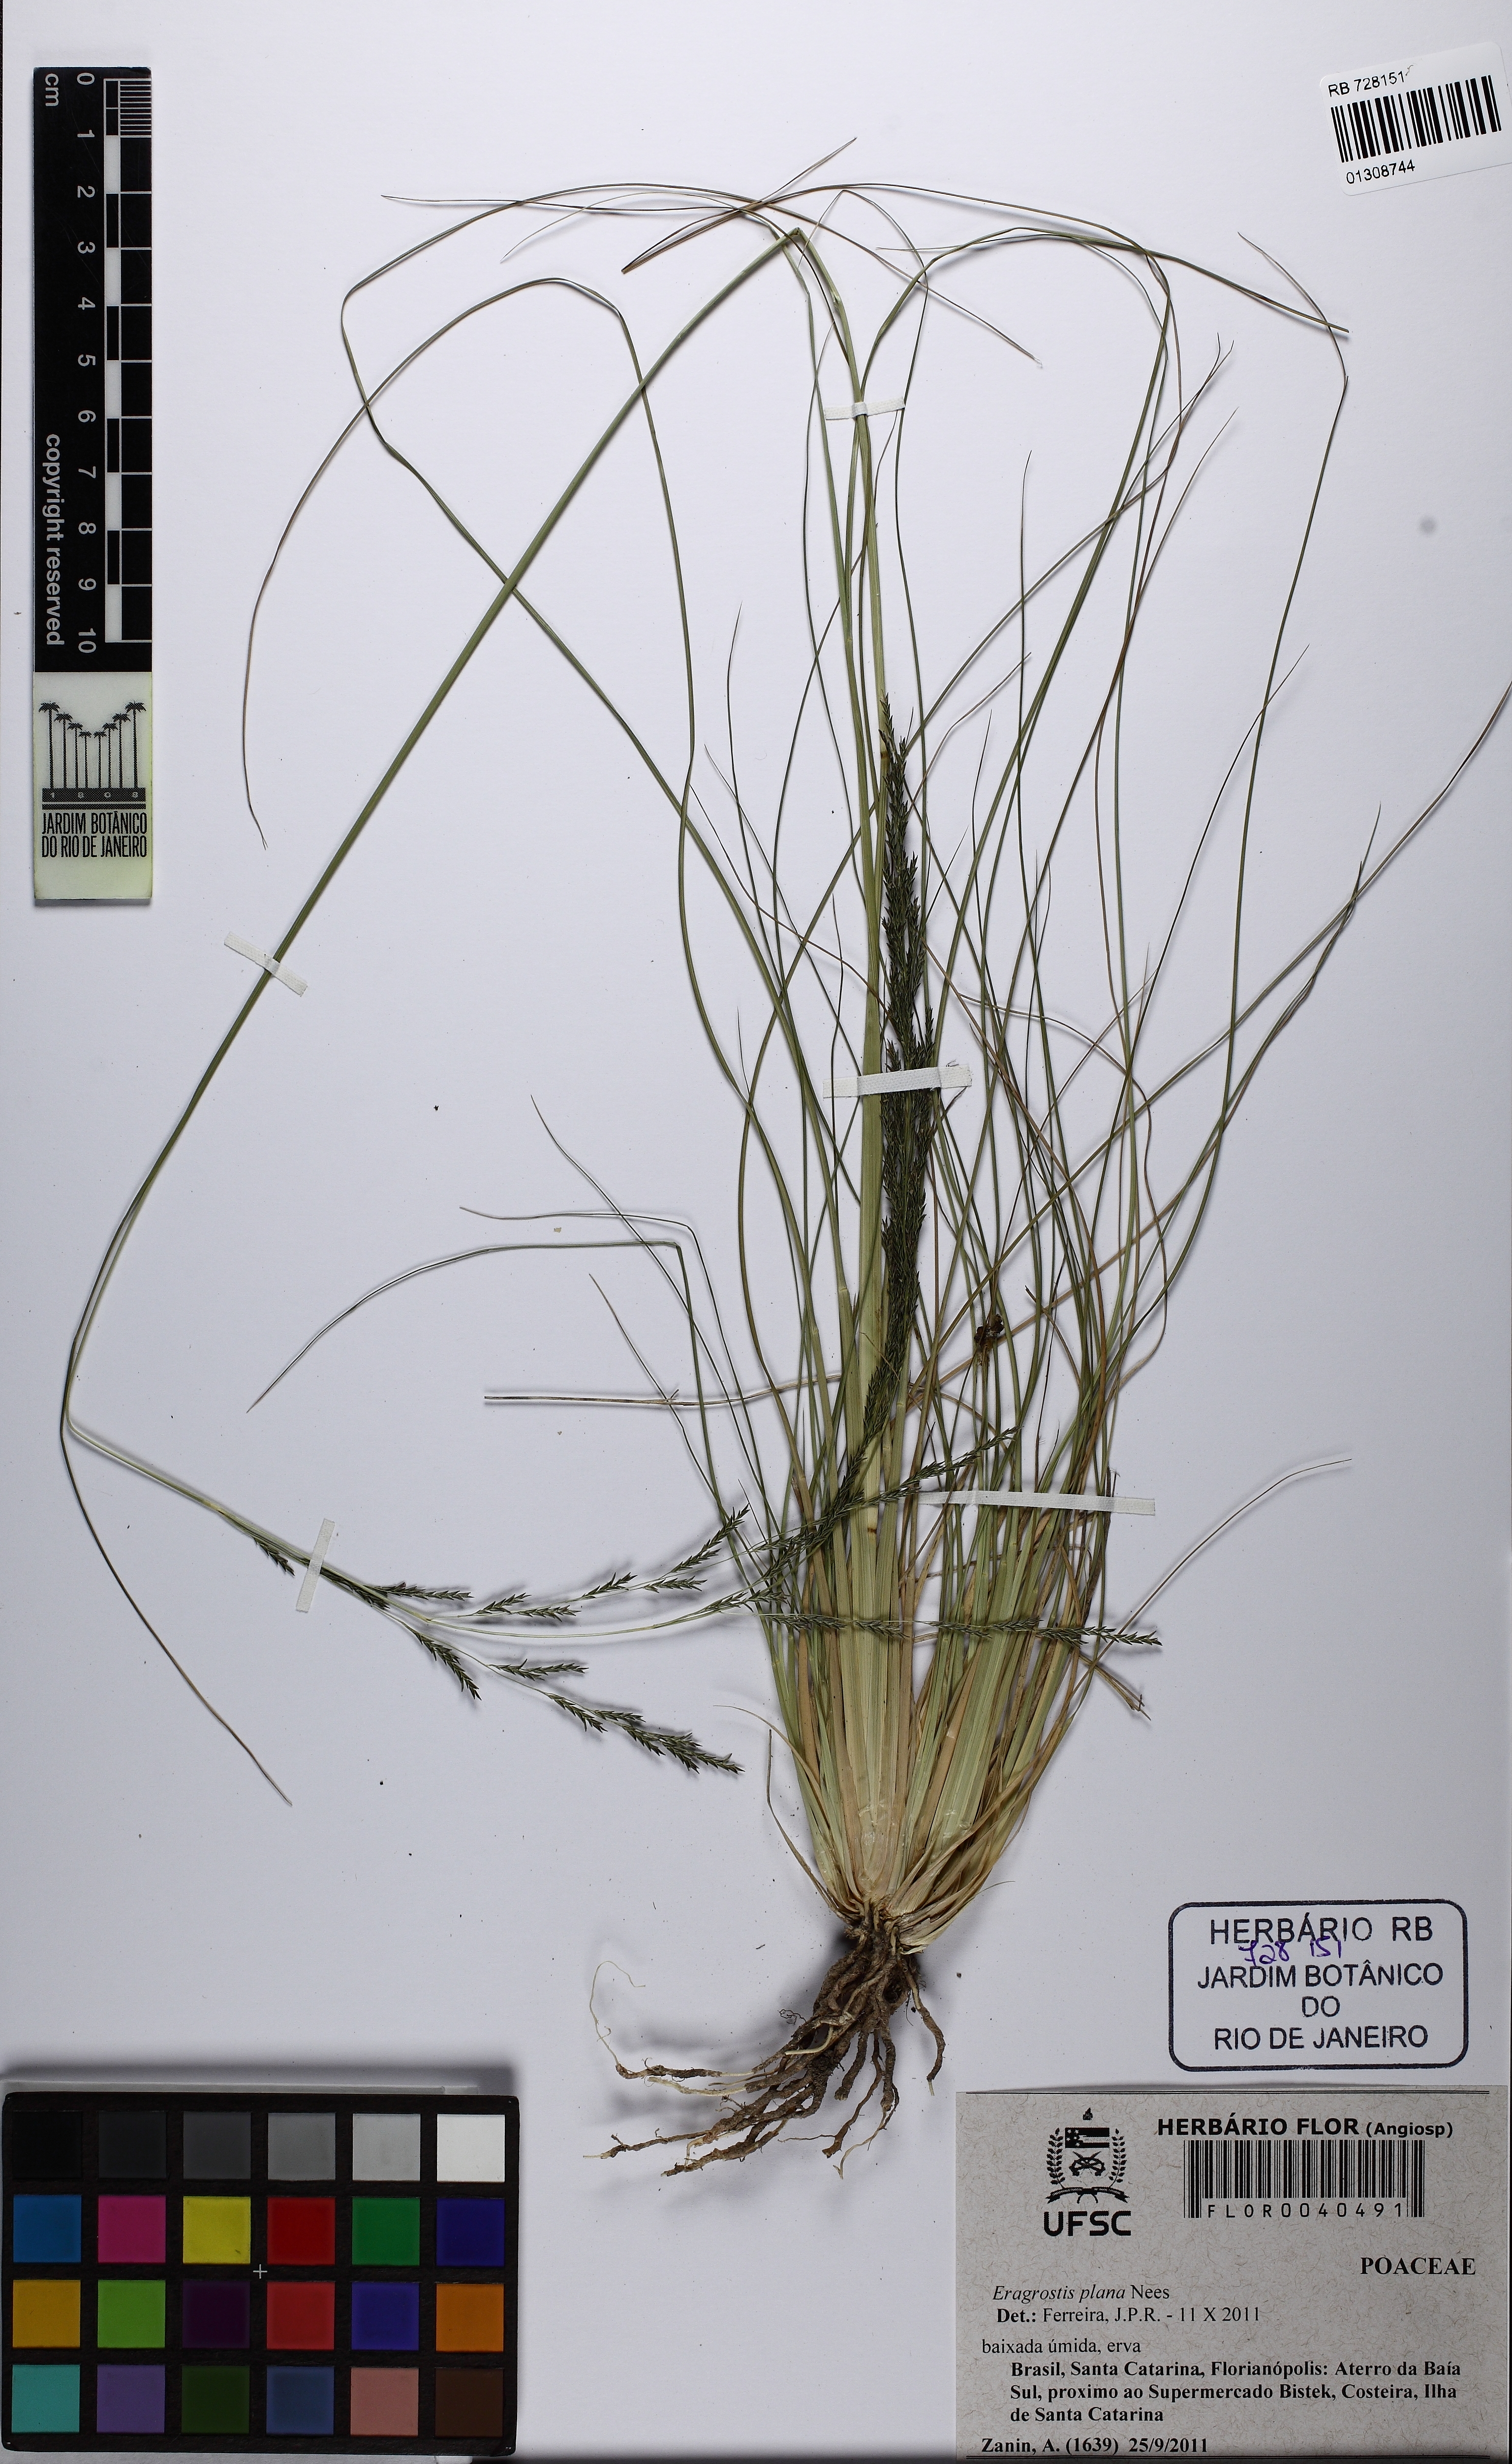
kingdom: Plantae
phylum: Tracheophyta
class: Liliopsida
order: Poales
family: Poaceae
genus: Eragrostis
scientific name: Eragrostis plana
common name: South african lovegrass
